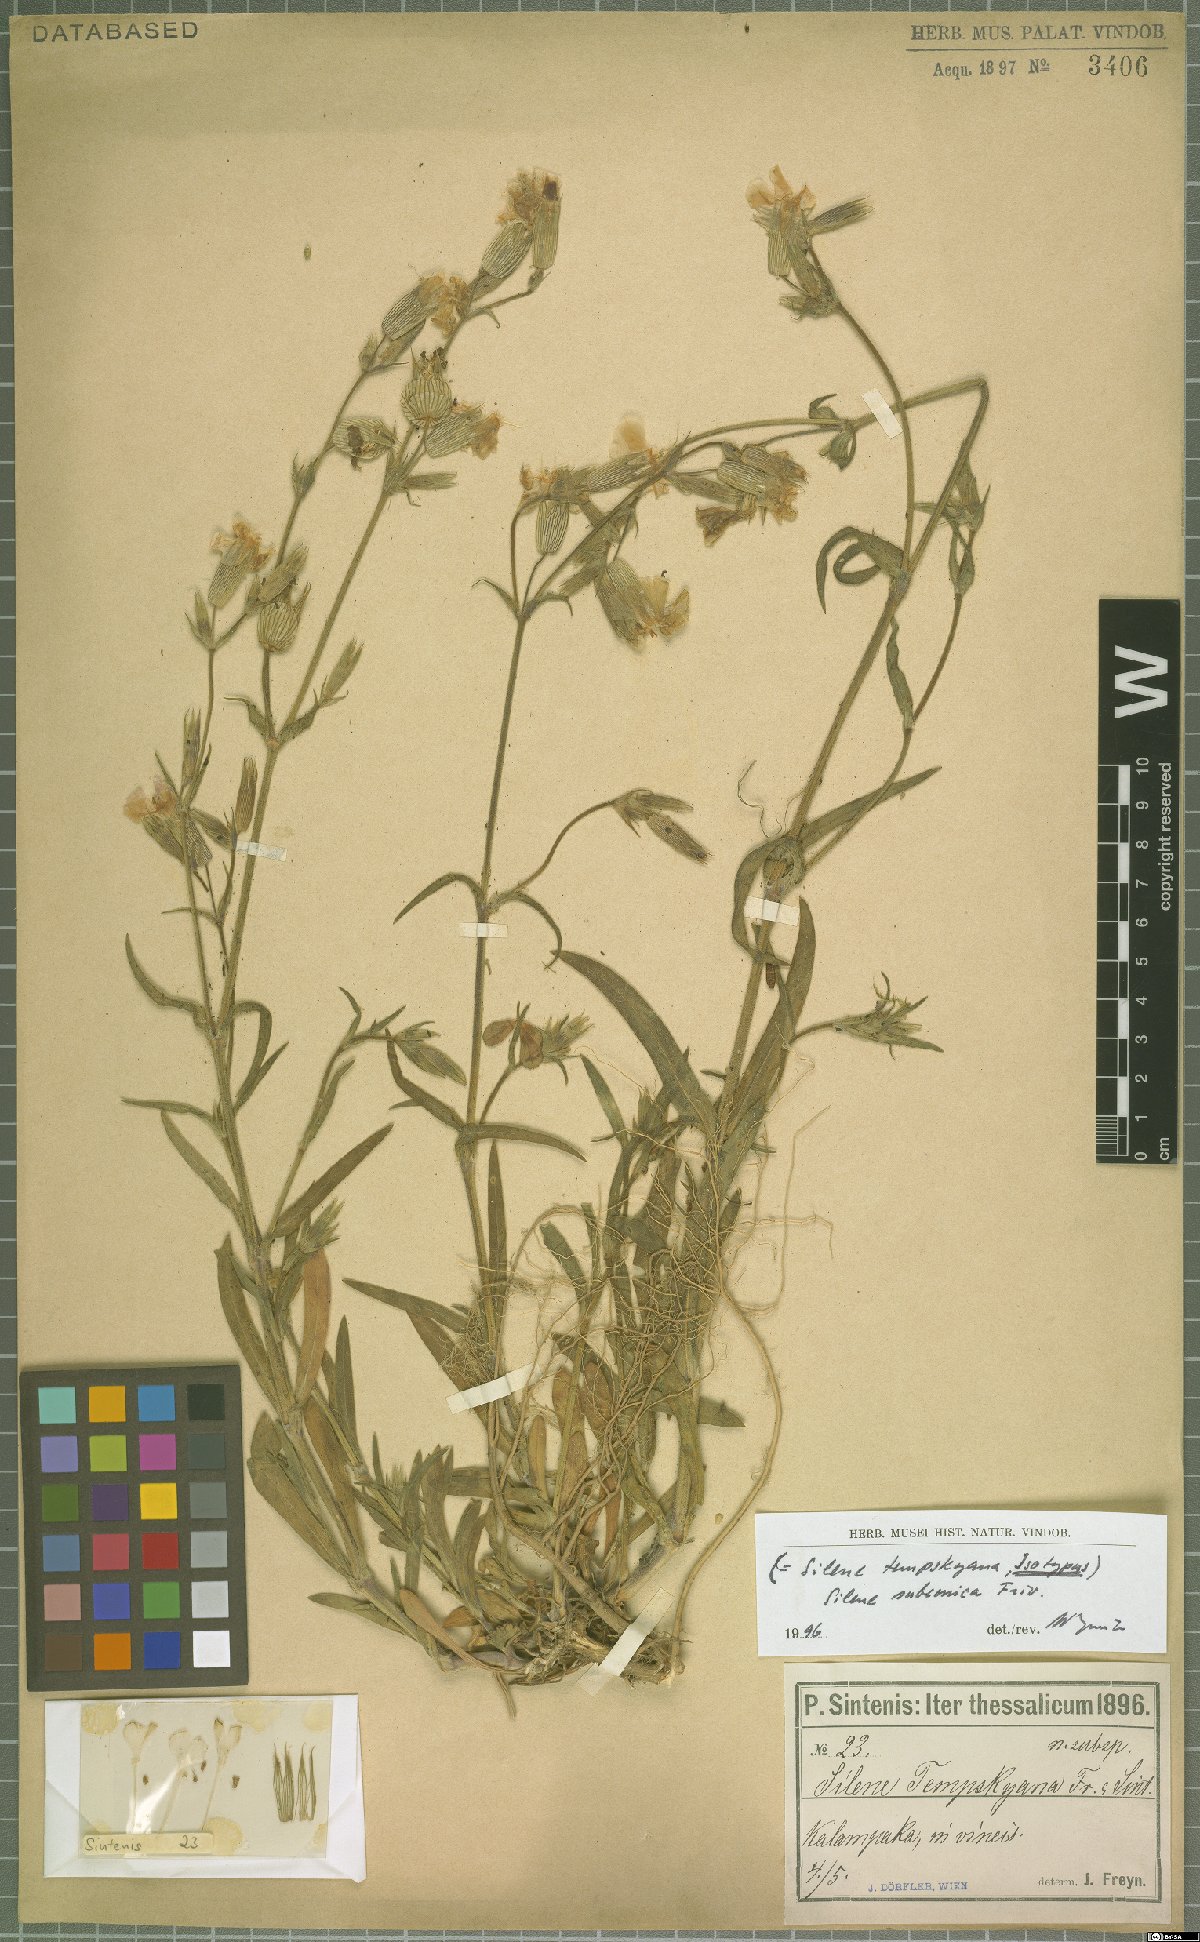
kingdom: Plantae
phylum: Tracheophyta
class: Magnoliopsida
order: Caryophyllales
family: Caryophyllaceae
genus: Silene
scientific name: Silene subconica
